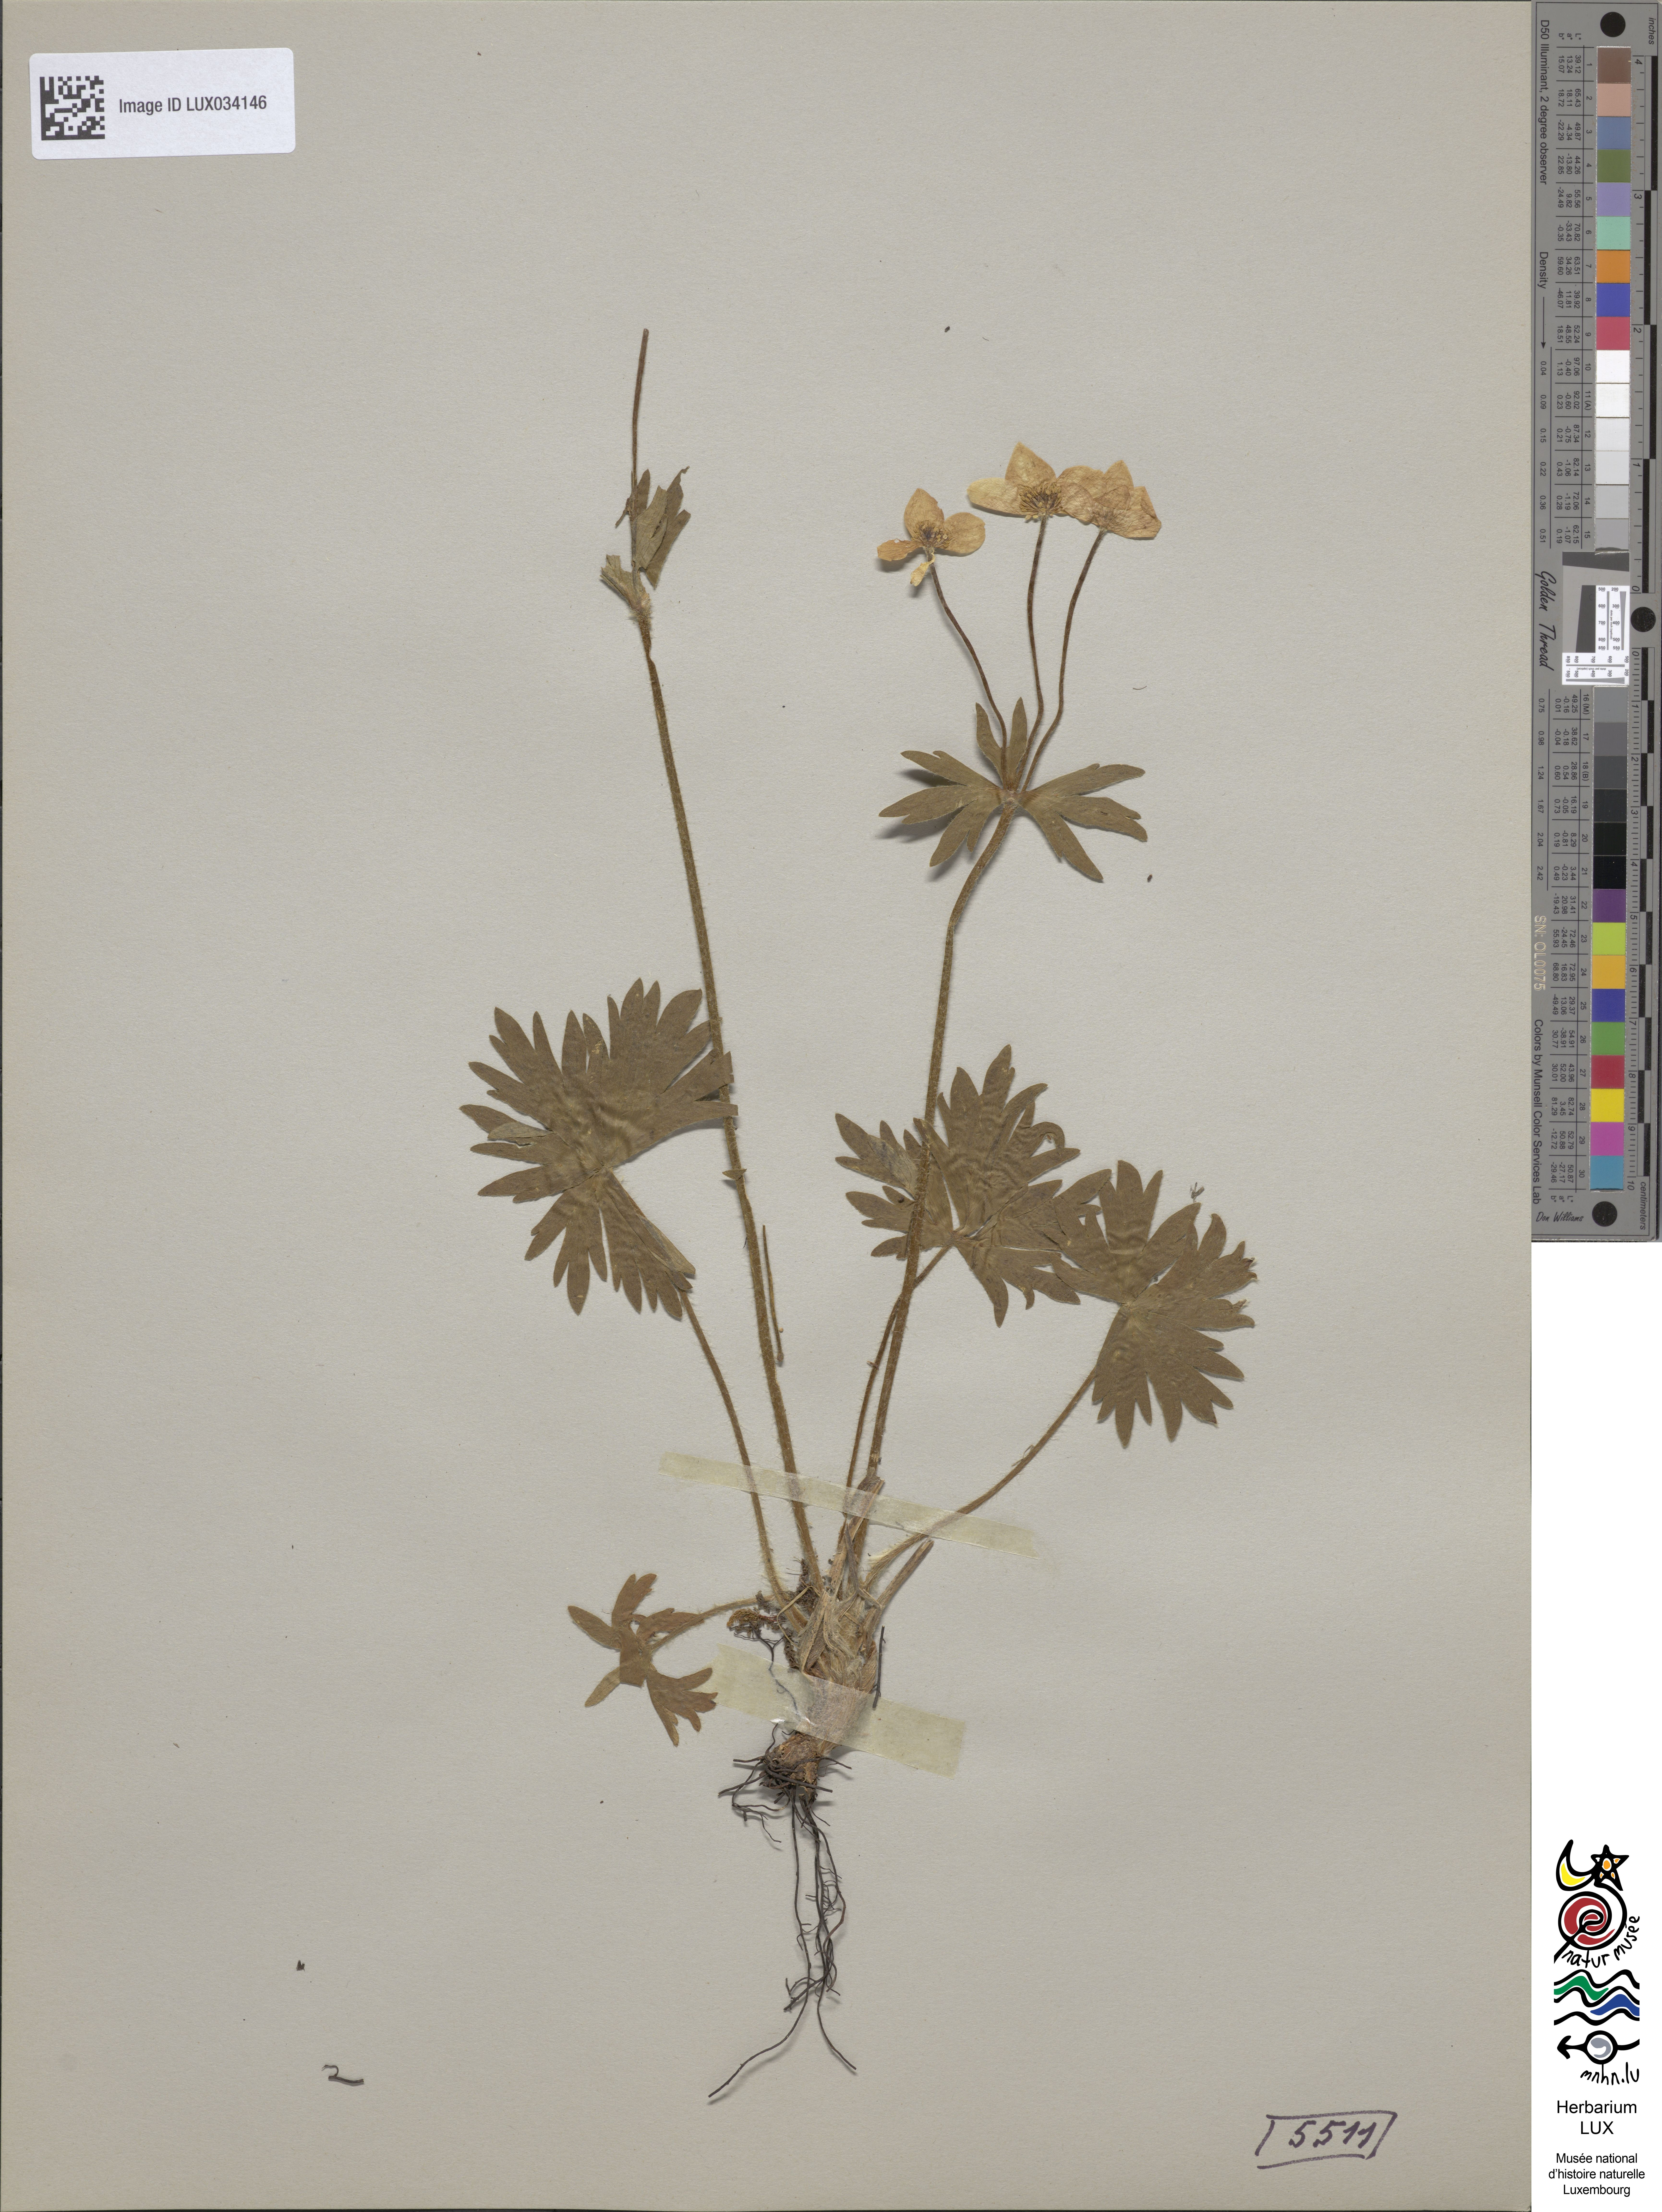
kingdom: Plantae
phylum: Tracheophyta
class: Magnoliopsida
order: Ranunculales
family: Ranunculaceae
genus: Anemone
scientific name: Anemone narcissifolia
